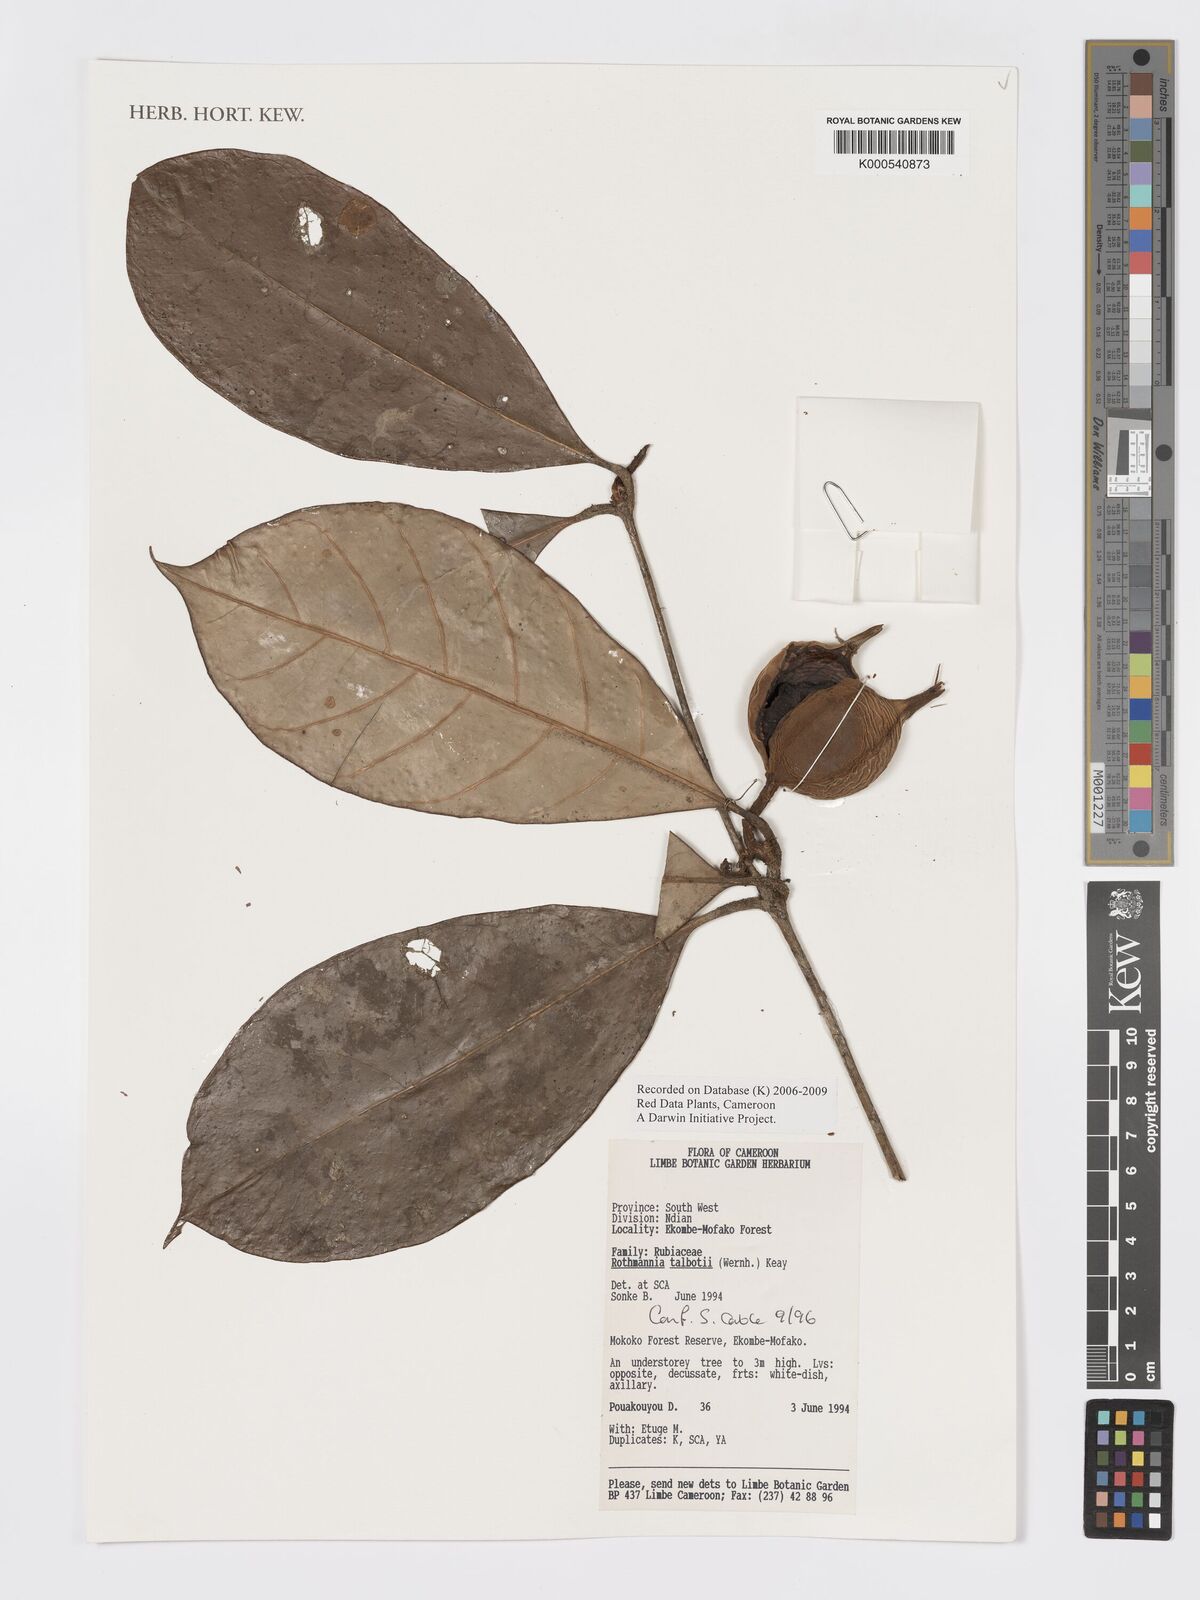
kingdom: Plantae
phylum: Tracheophyta
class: Magnoliopsida
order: Gentianales
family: Rubiaceae
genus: Rothmannia
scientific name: Rothmannia talbotii
